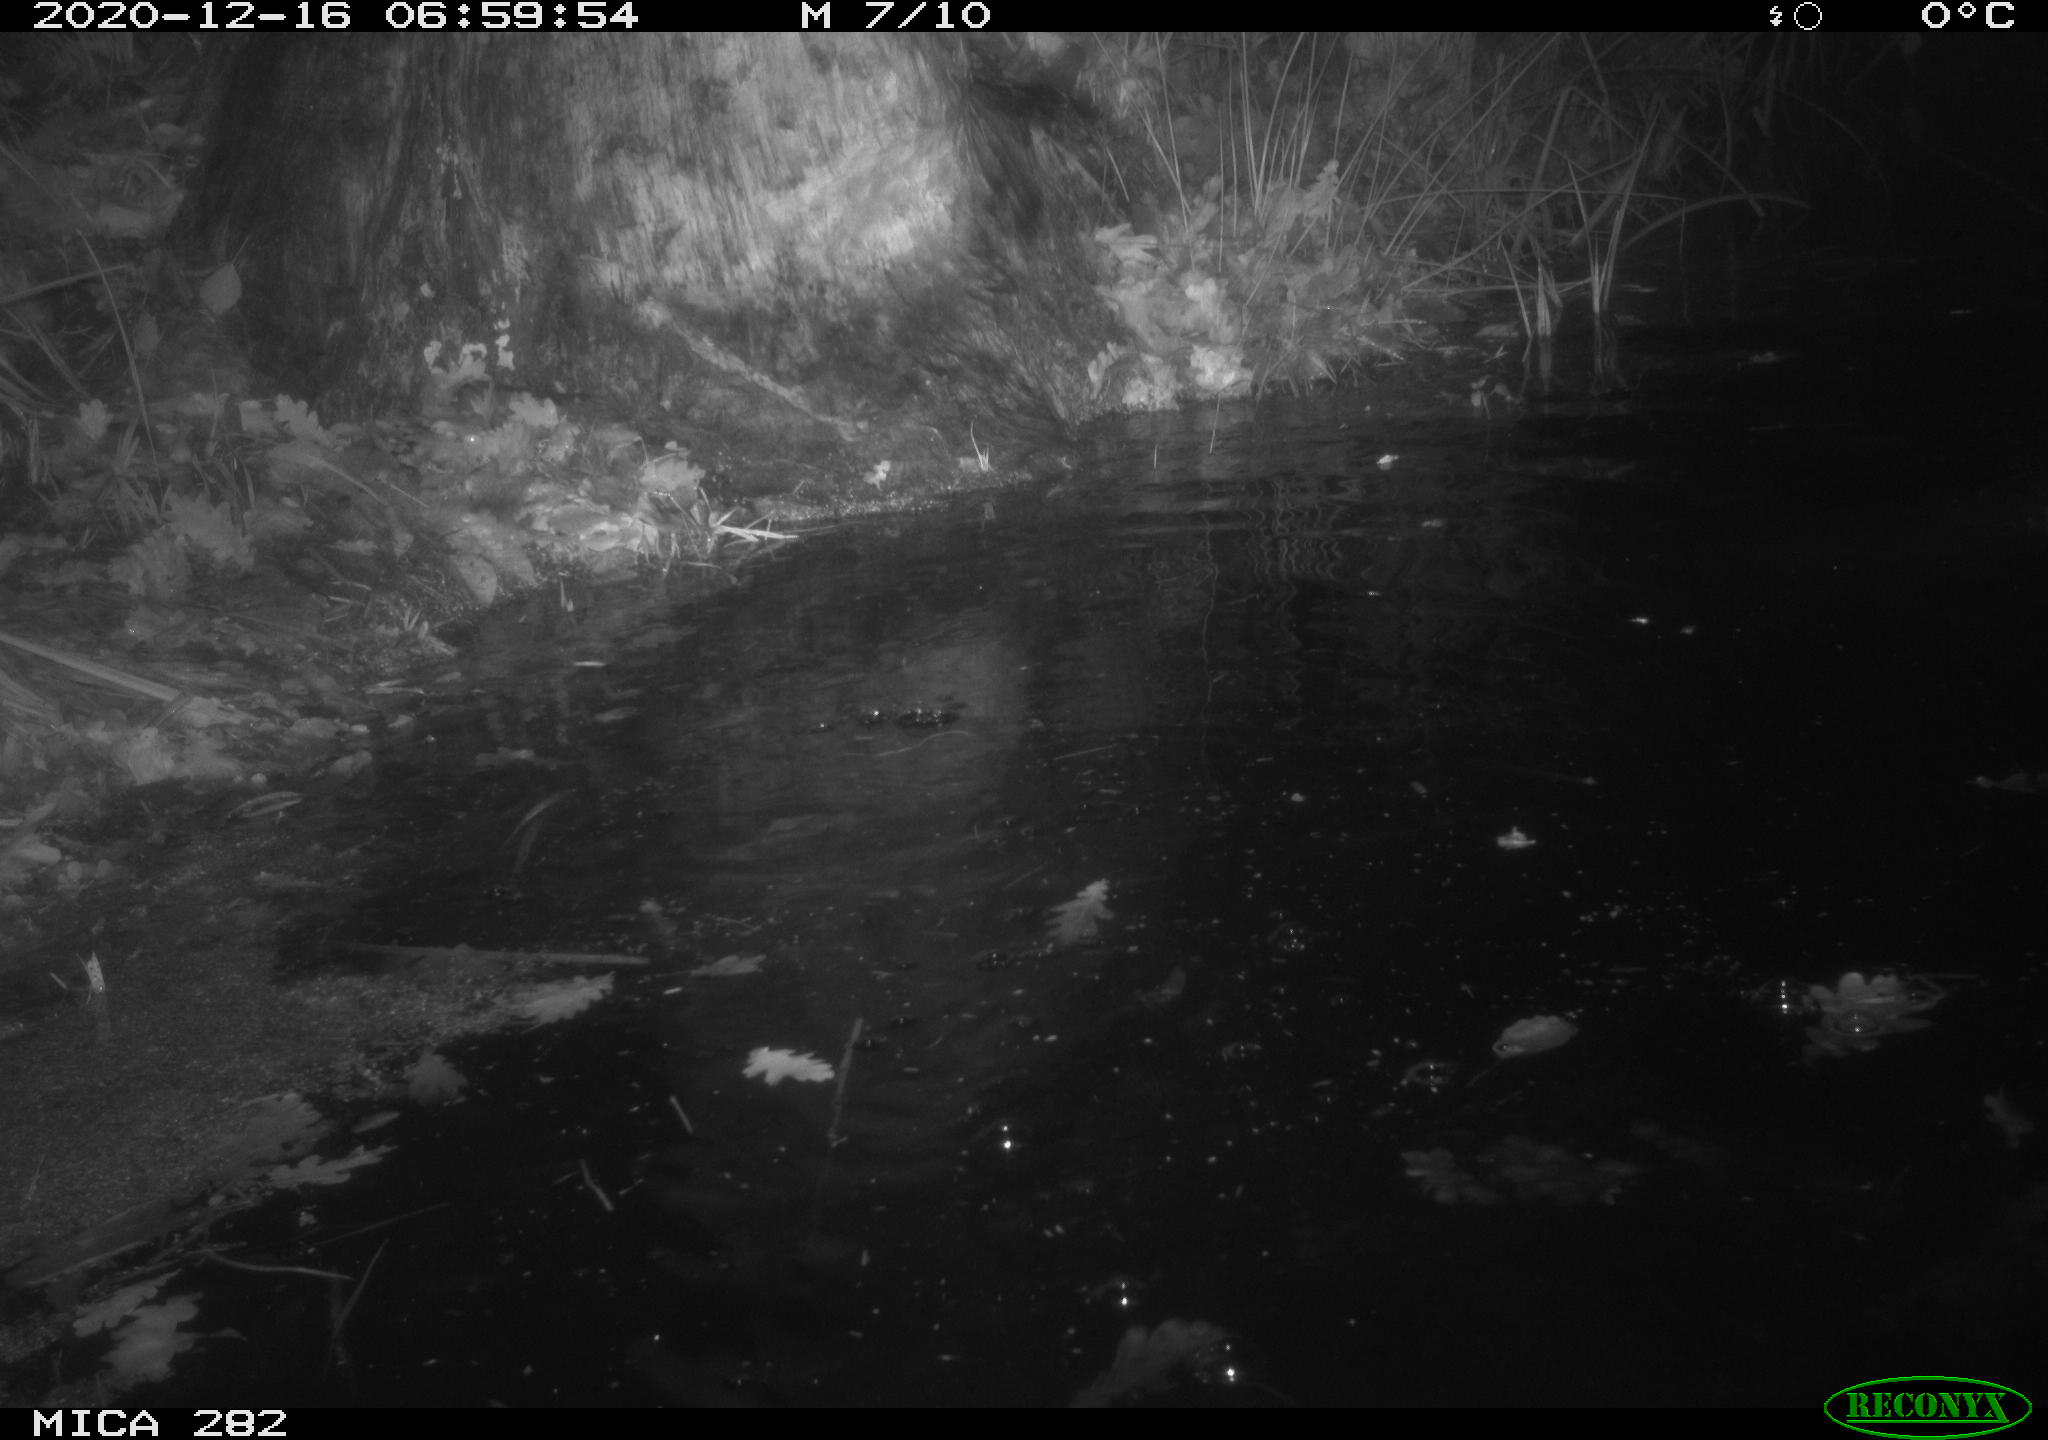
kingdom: Animalia
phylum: Chordata
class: Mammalia
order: Rodentia
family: Castoridae
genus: Castor
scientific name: Castor fiber
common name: Eurasian beaver
